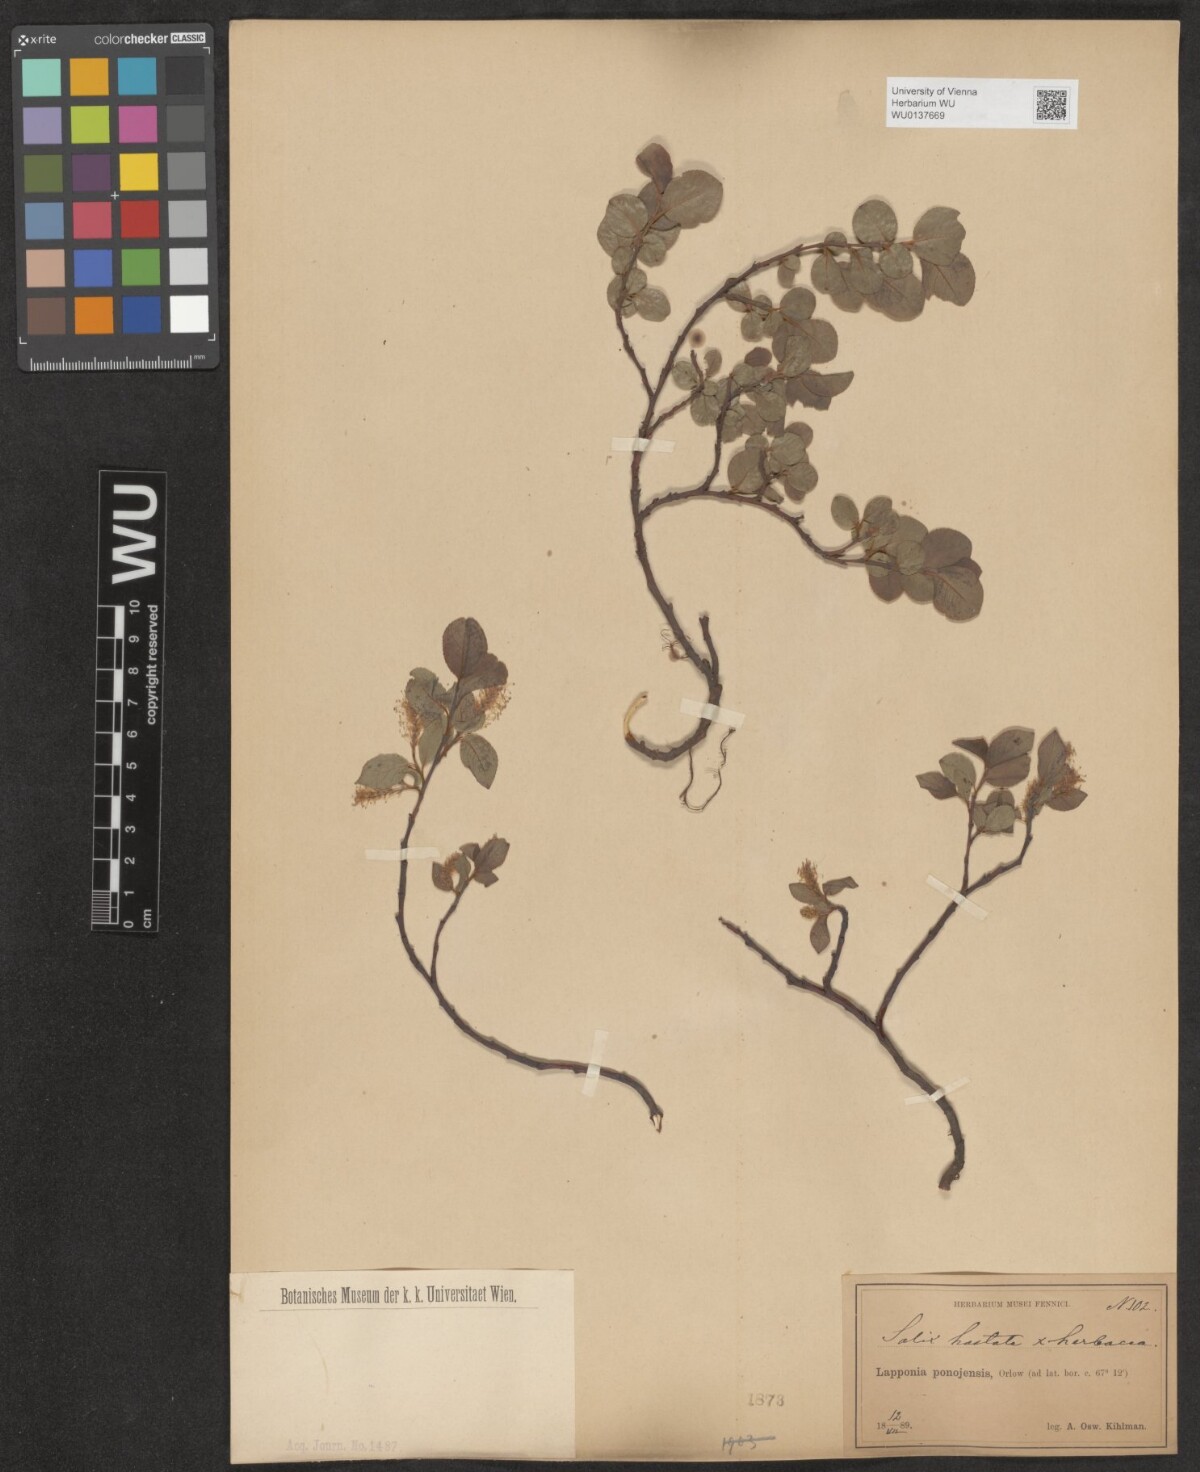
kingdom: Plantae
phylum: Tracheophyta
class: Magnoliopsida
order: Malpighiales
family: Salicaceae
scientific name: Salicaceae
